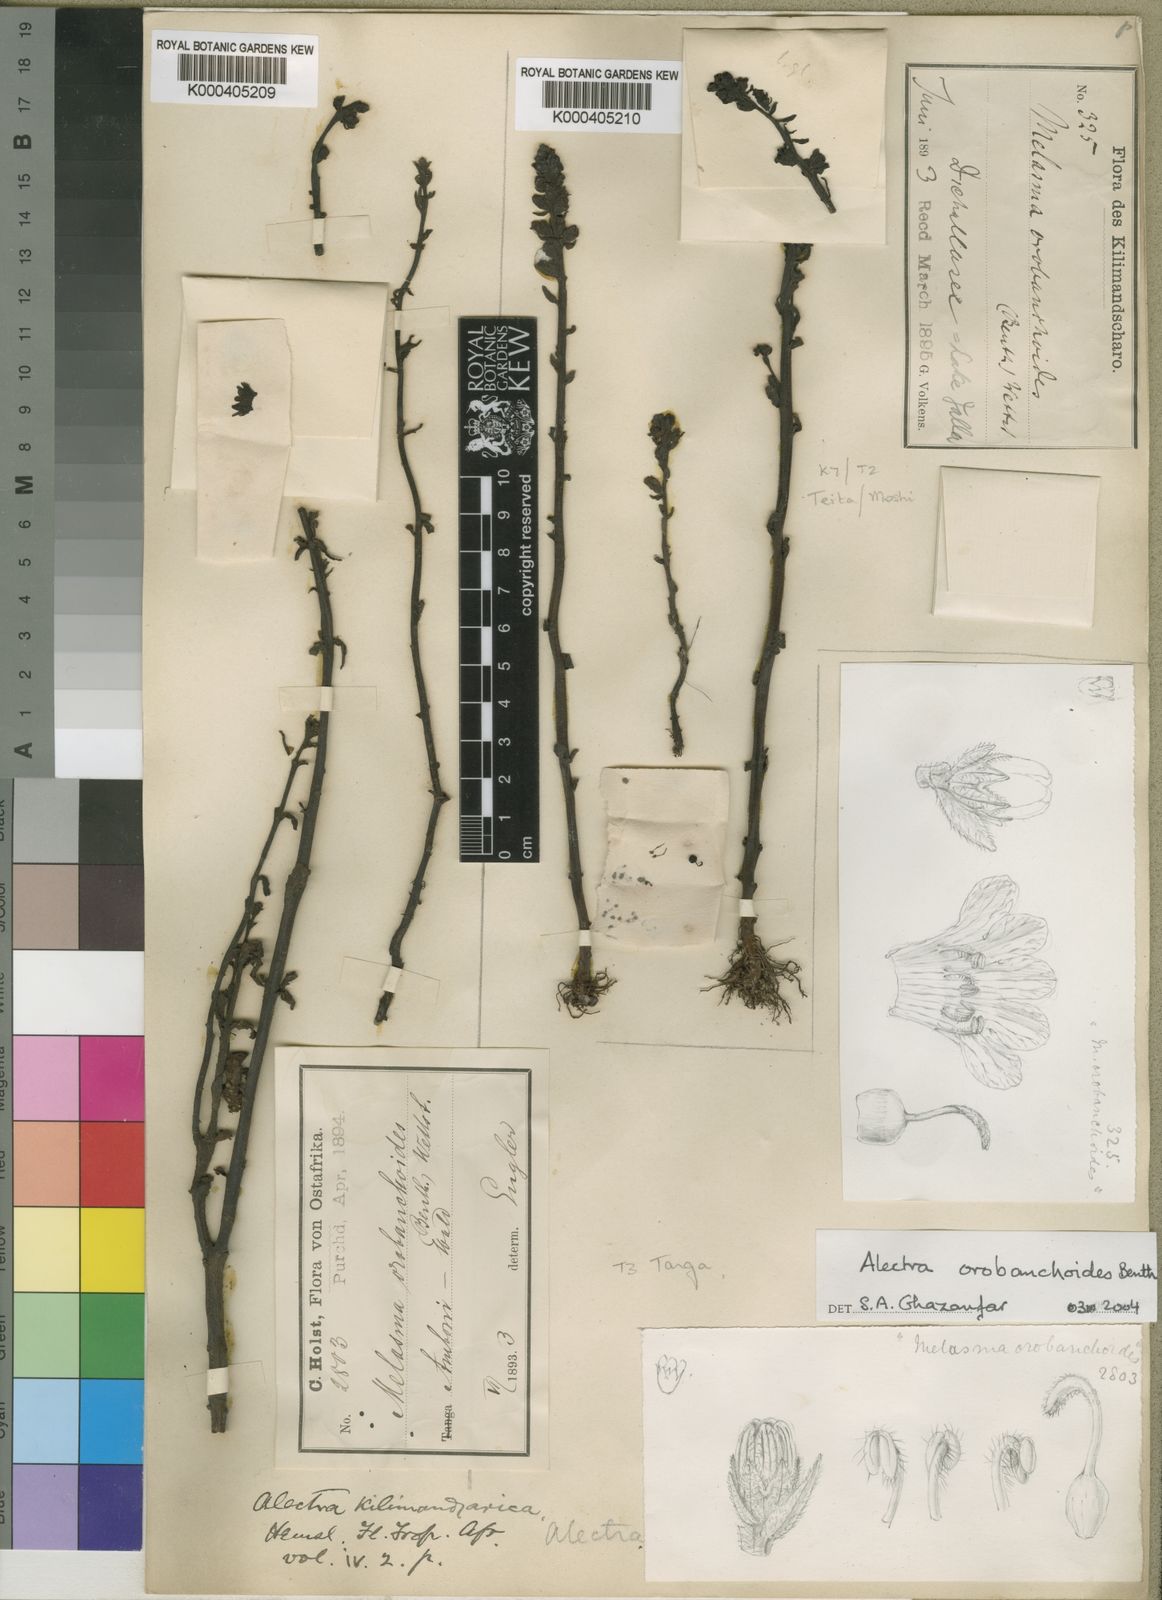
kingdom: Plantae
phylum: Tracheophyta
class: Magnoliopsida
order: Lamiales
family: Orobanchaceae
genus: Alectra
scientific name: Alectra orobanchoides
